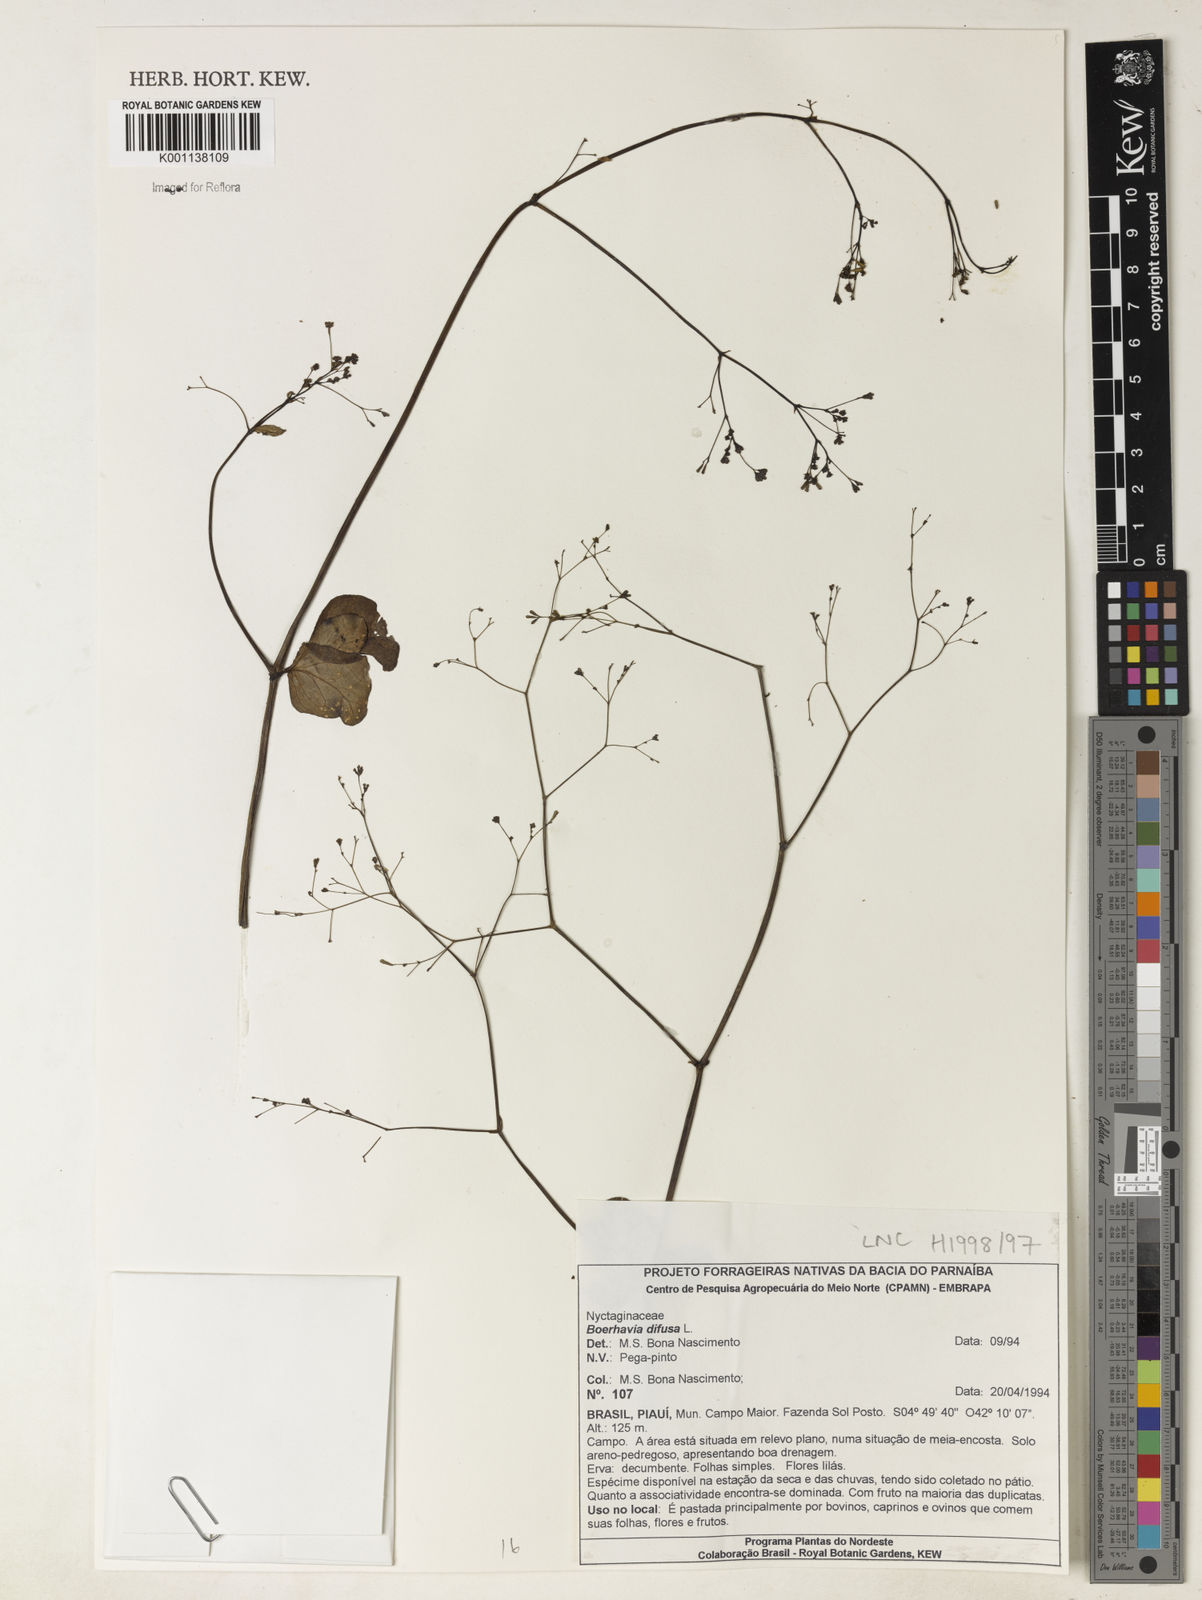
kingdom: Plantae
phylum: Tracheophyta
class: Magnoliopsida
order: Caryophyllales
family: Nyctaginaceae
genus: Boerhavia
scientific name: Boerhavia diffusa
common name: Red spiderling
